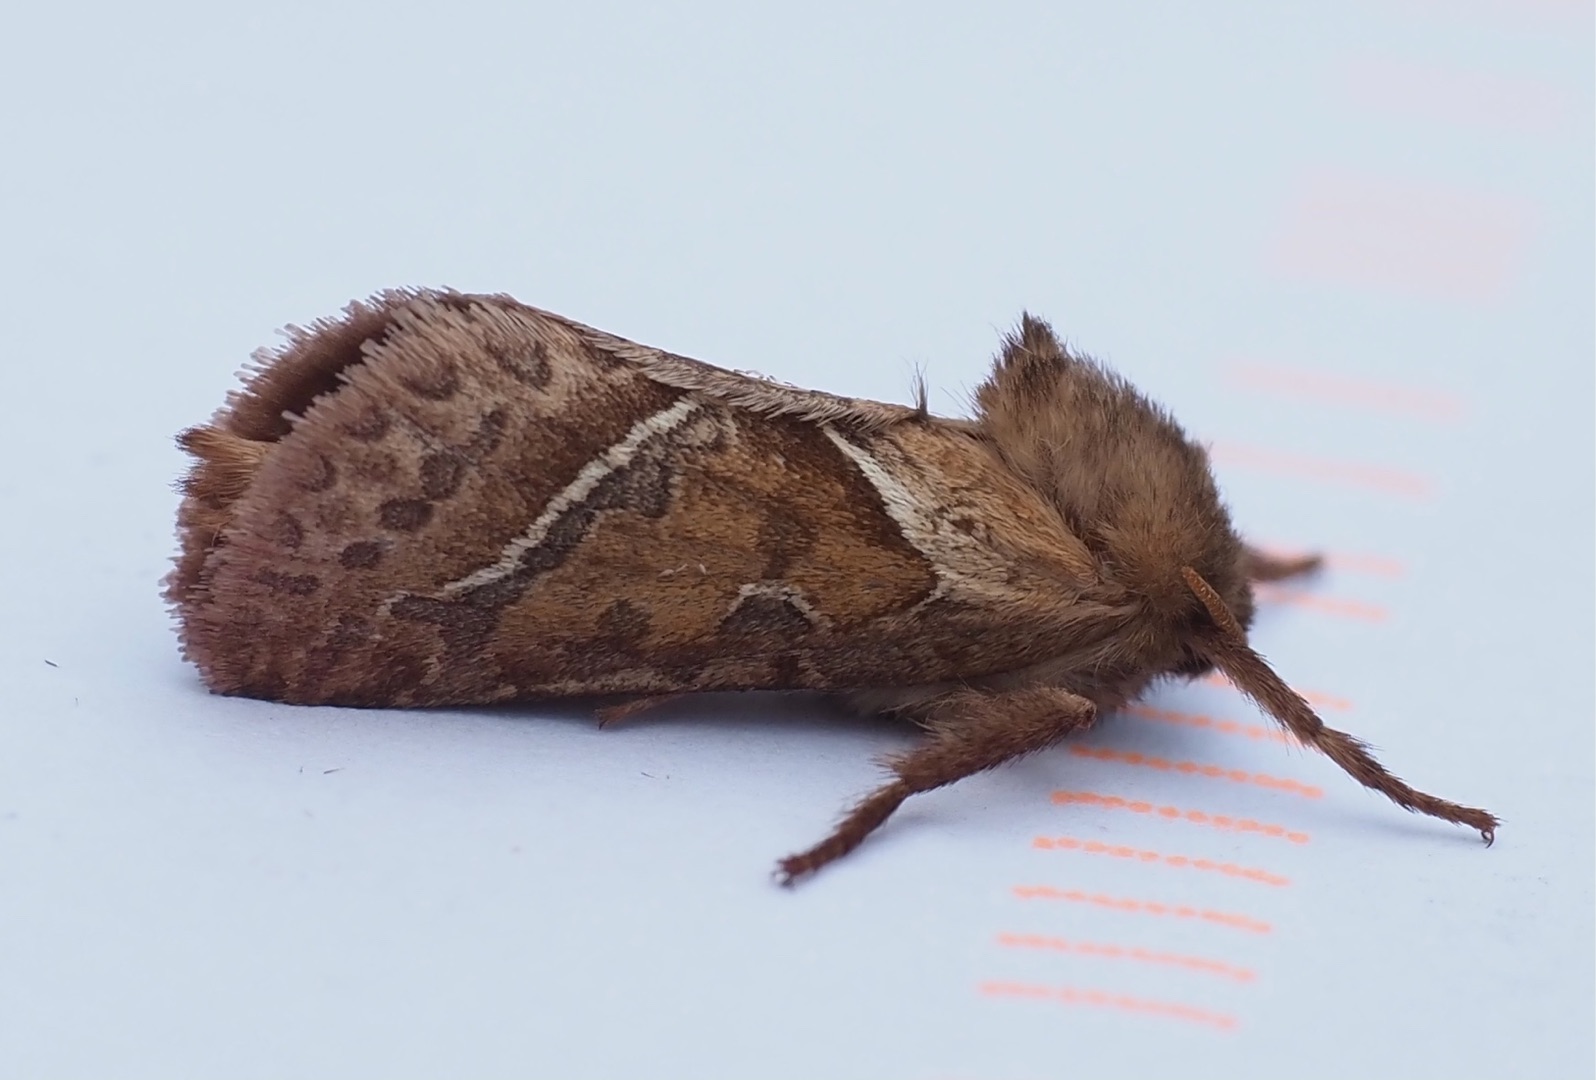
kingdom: Animalia
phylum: Arthropoda
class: Insecta
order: Lepidoptera
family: Hepialidae
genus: Triodia
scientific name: Triodia sylvina
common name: Skræpperodæder
